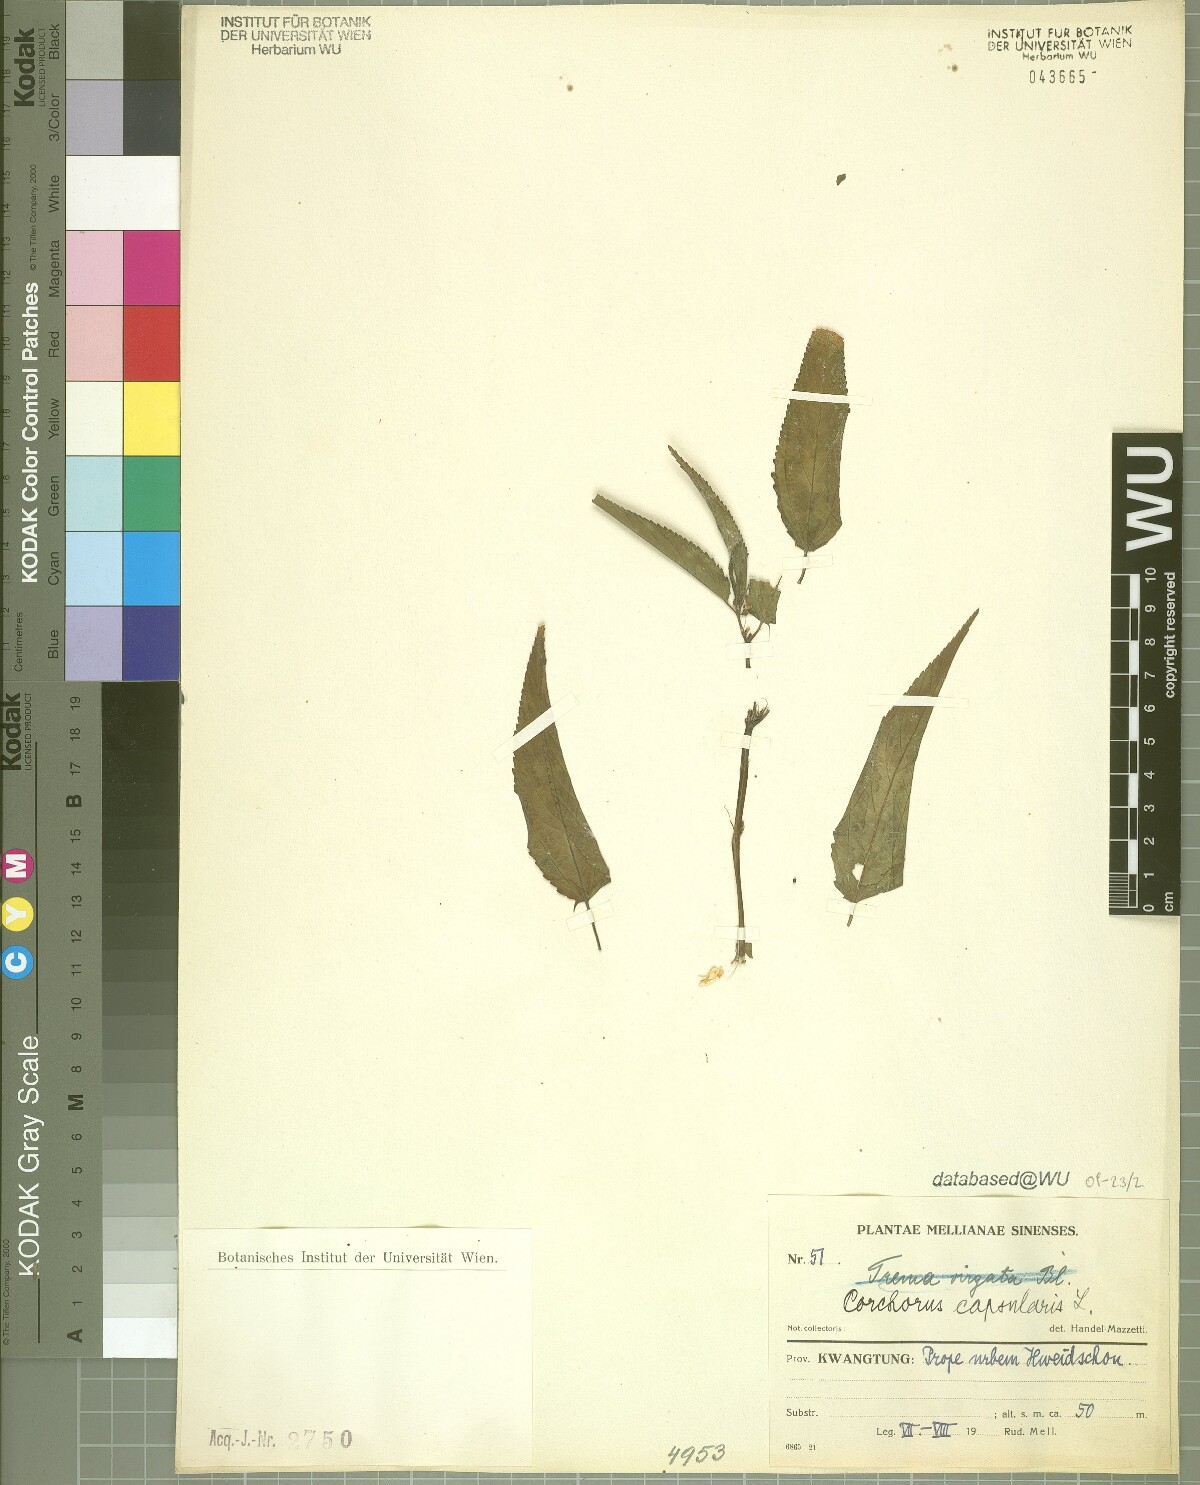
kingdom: Plantae
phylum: Tracheophyta
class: Magnoliopsida
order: Malvales
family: Malvaceae
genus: Corchorus
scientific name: Corchorus capsularis
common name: Jute
